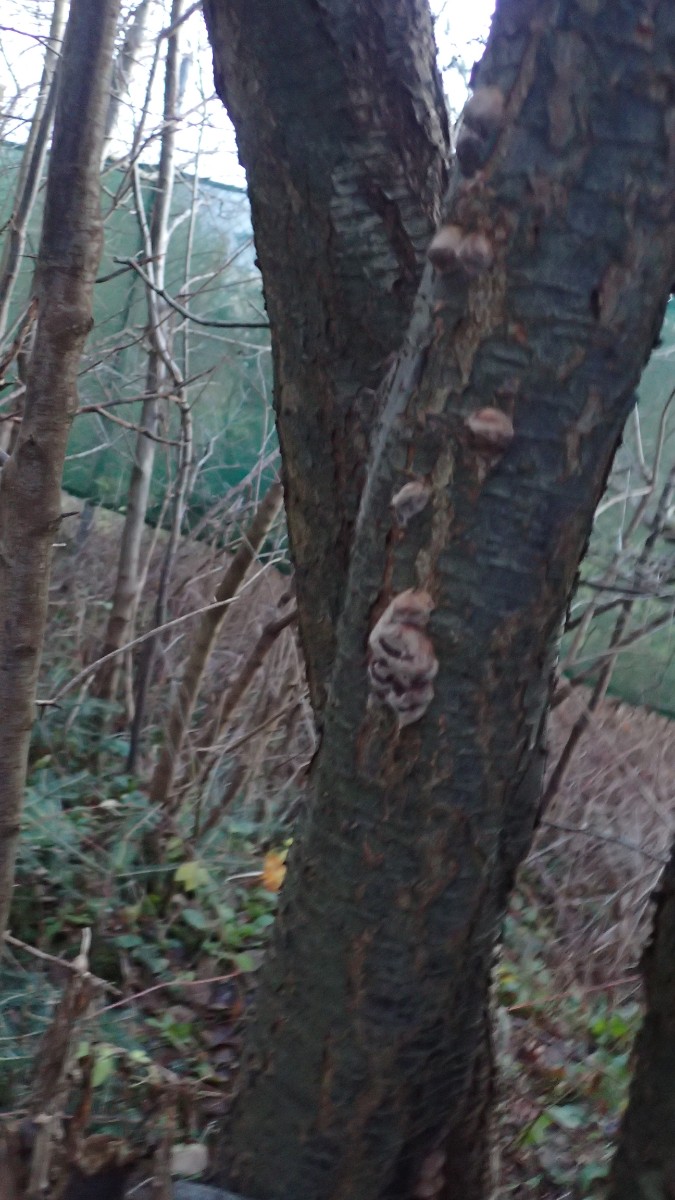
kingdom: Fungi
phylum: Basidiomycota
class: Agaricomycetes
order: Hymenochaetales
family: Hymenochaetaceae
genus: Phellinus
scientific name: Phellinus pomaceus
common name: blomme-ildporesvamp
